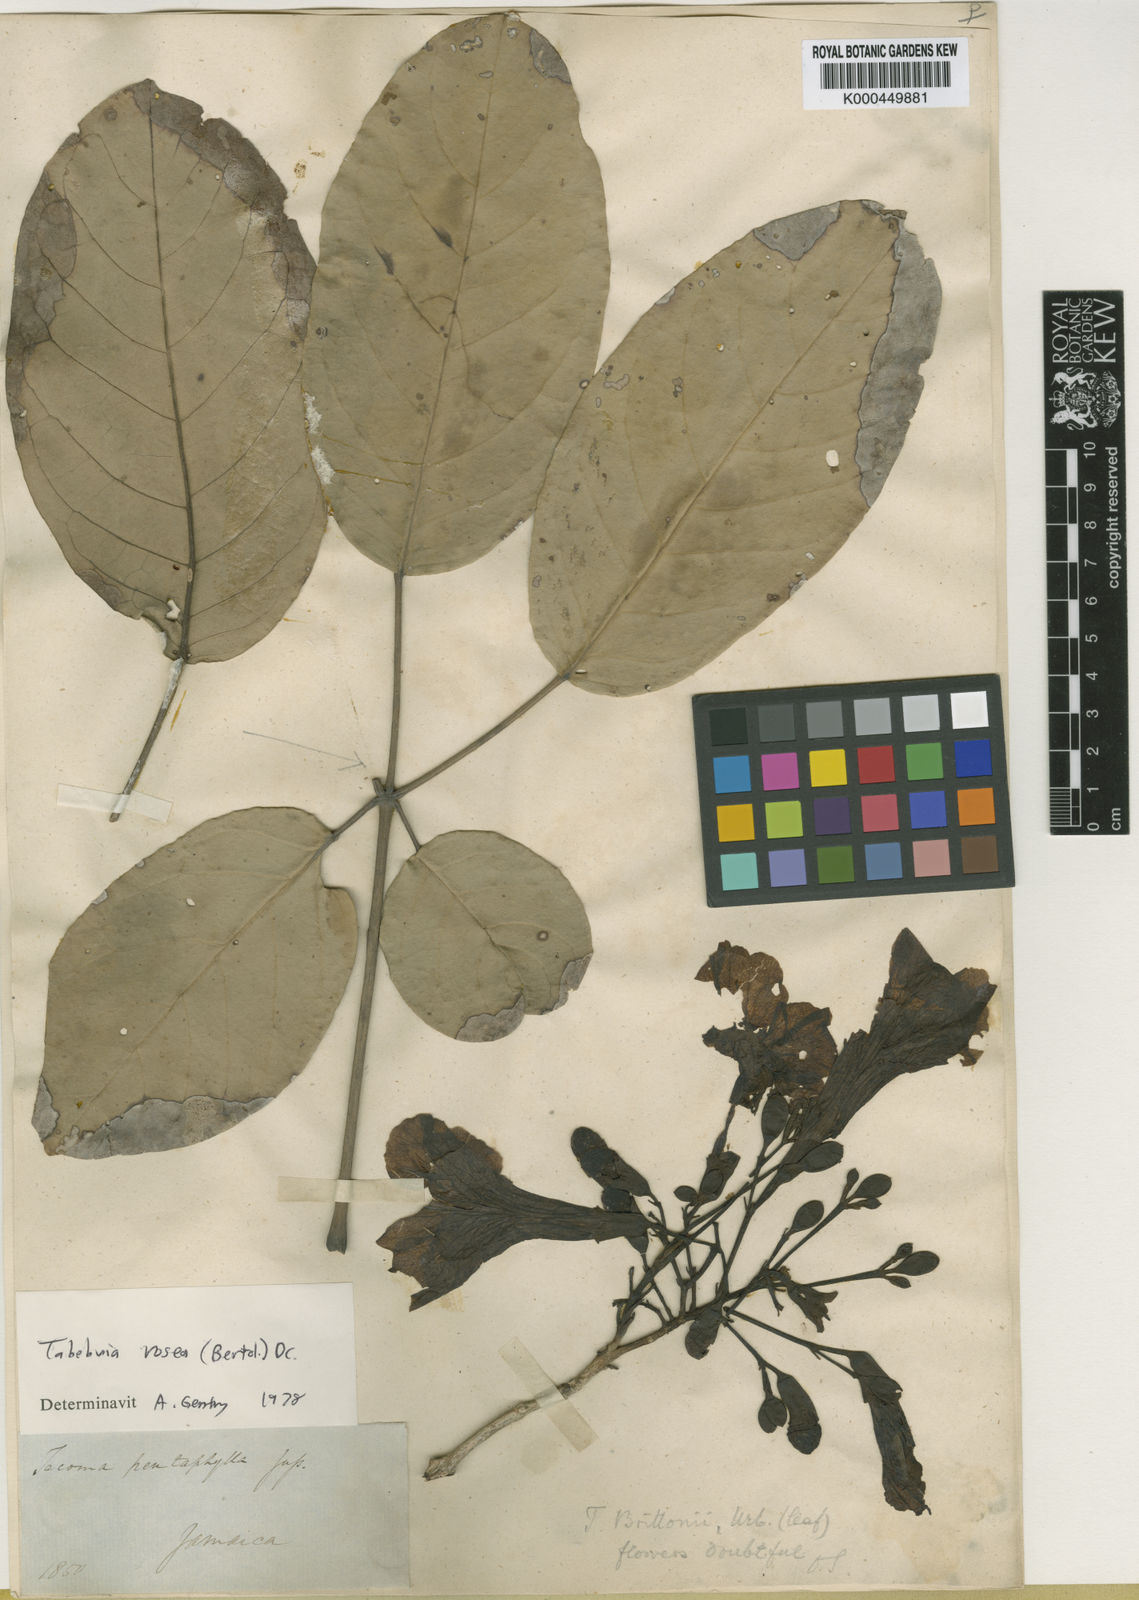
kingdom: Plantae
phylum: Tracheophyta
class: Magnoliopsida
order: Lamiales
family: Bignoniaceae
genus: Tabebuia
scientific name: Tabebuia rosea
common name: Pink poui
